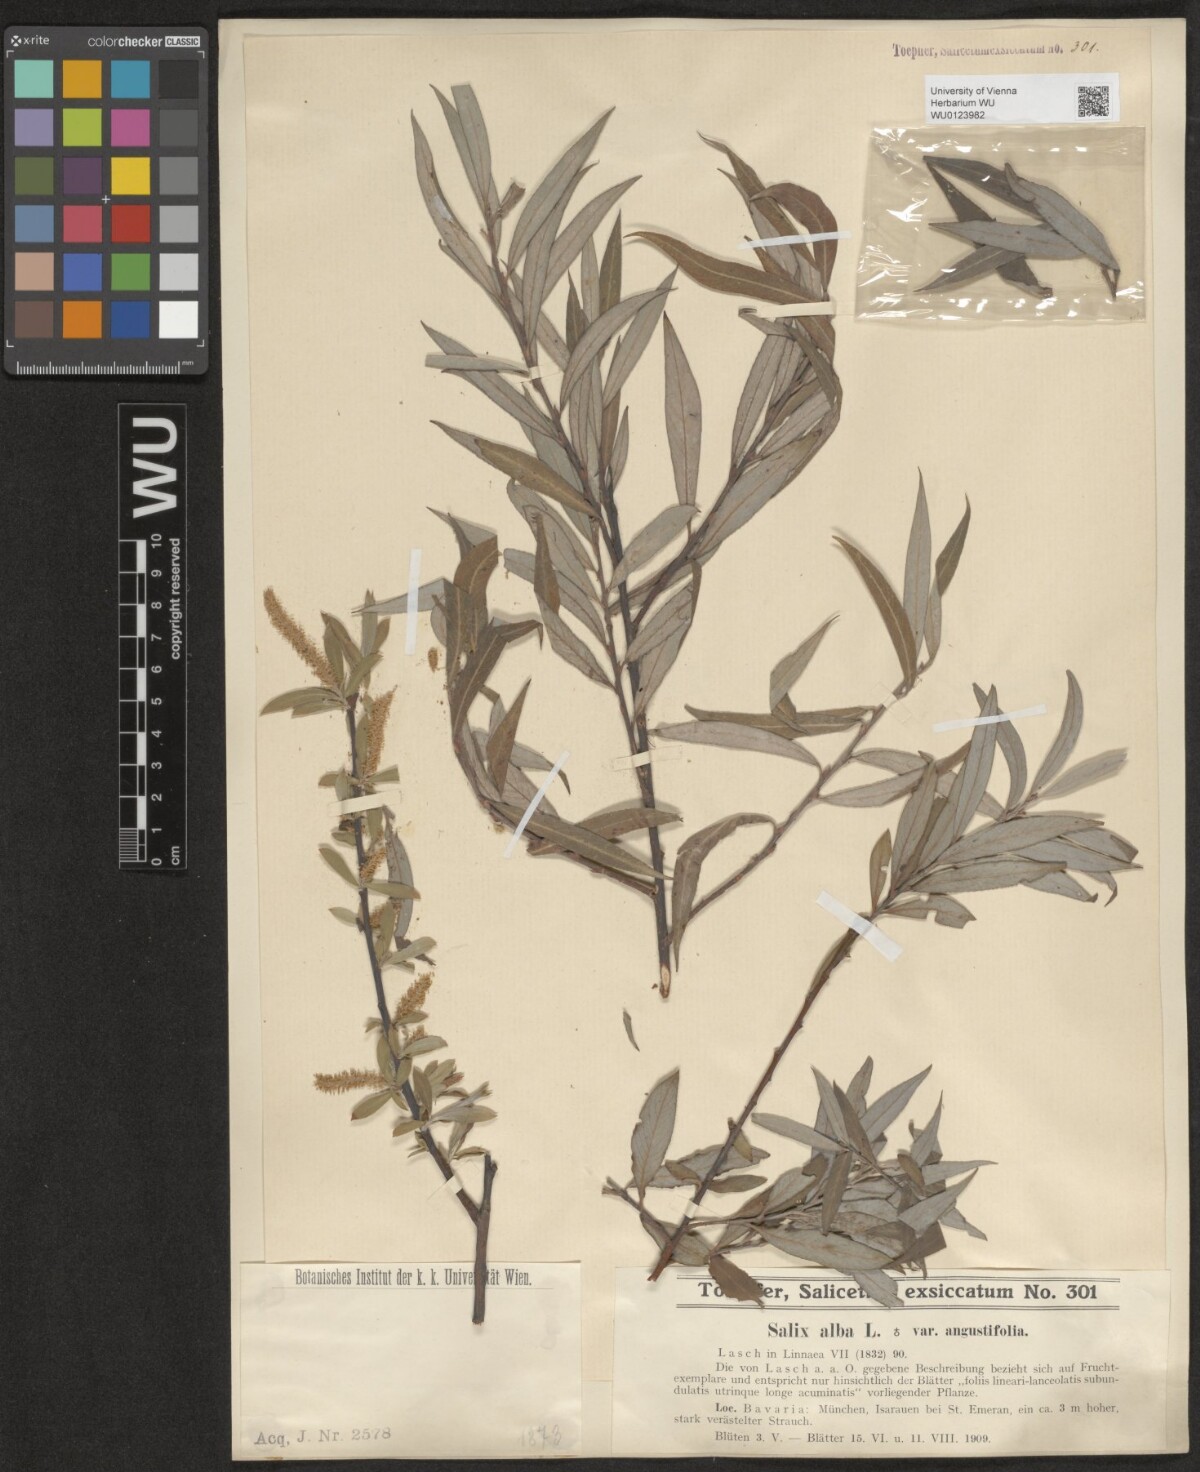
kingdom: Plantae
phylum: Tracheophyta
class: Magnoliopsida
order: Malpighiales
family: Salicaceae
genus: Salix
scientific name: Salix alba
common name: White willow
